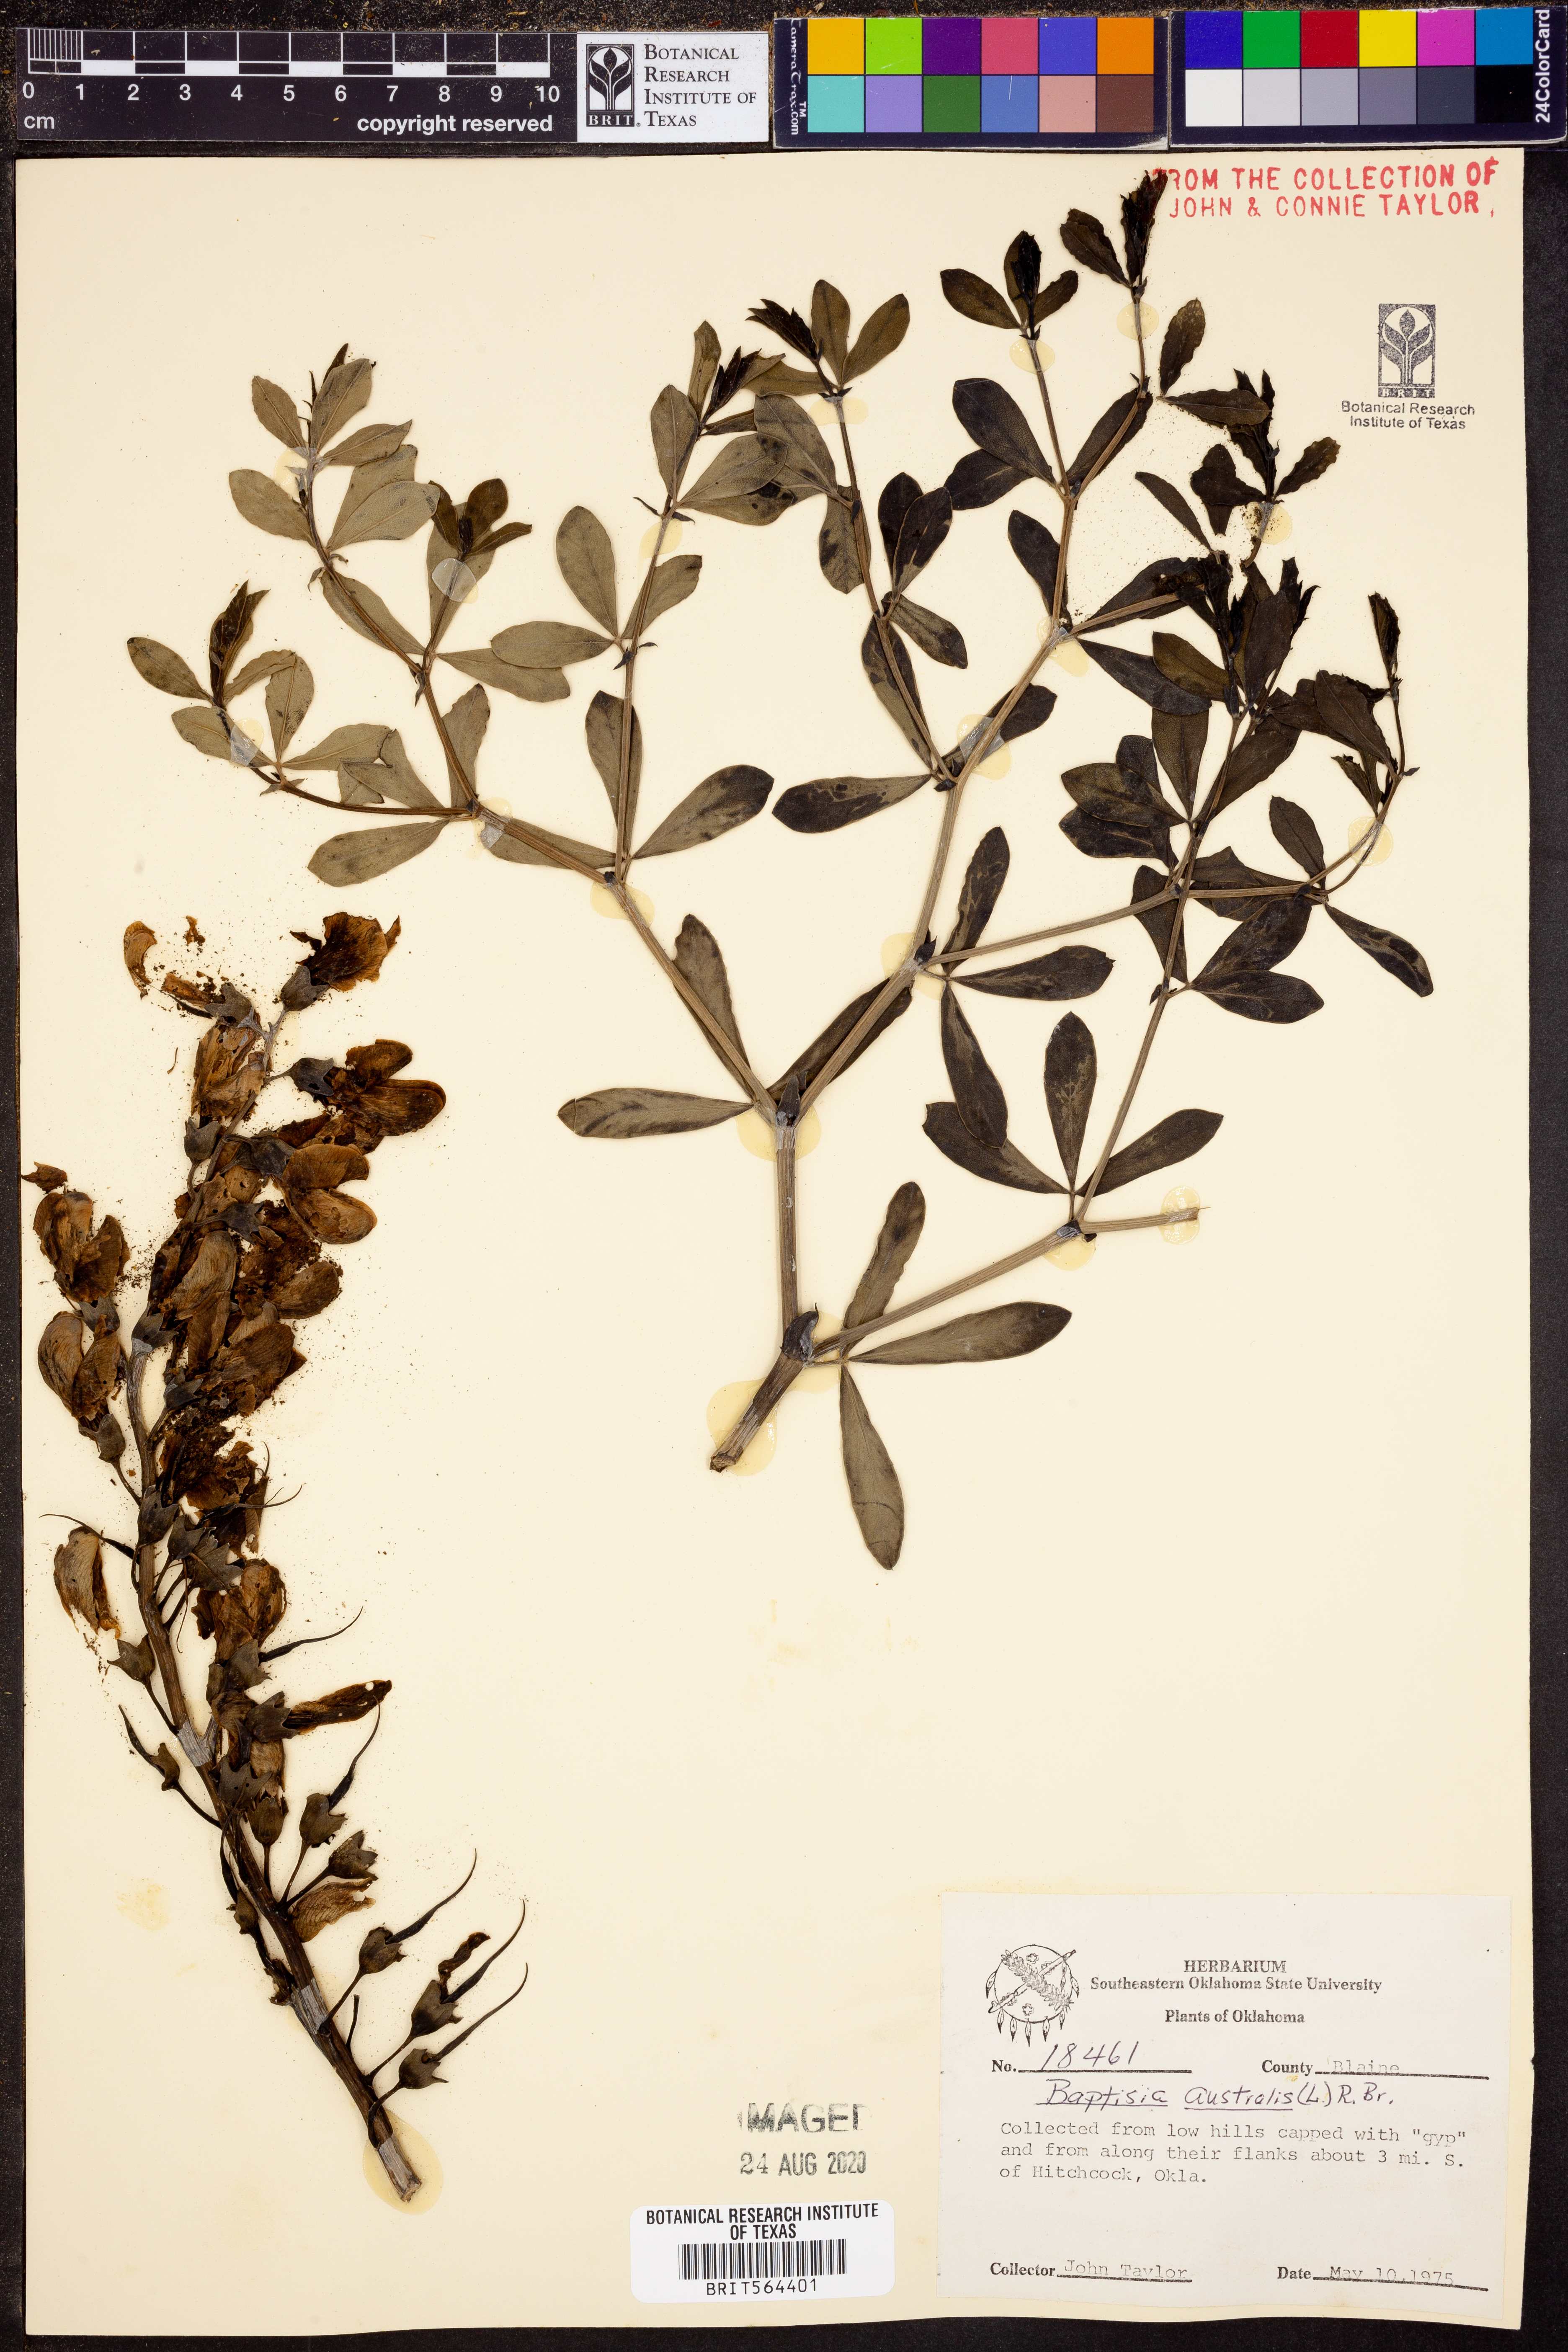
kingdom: Plantae
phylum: Tracheophyta
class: Magnoliopsida
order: Fabales
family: Fabaceae
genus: Baptisia
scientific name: Baptisia australis
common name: Blue false indigo
